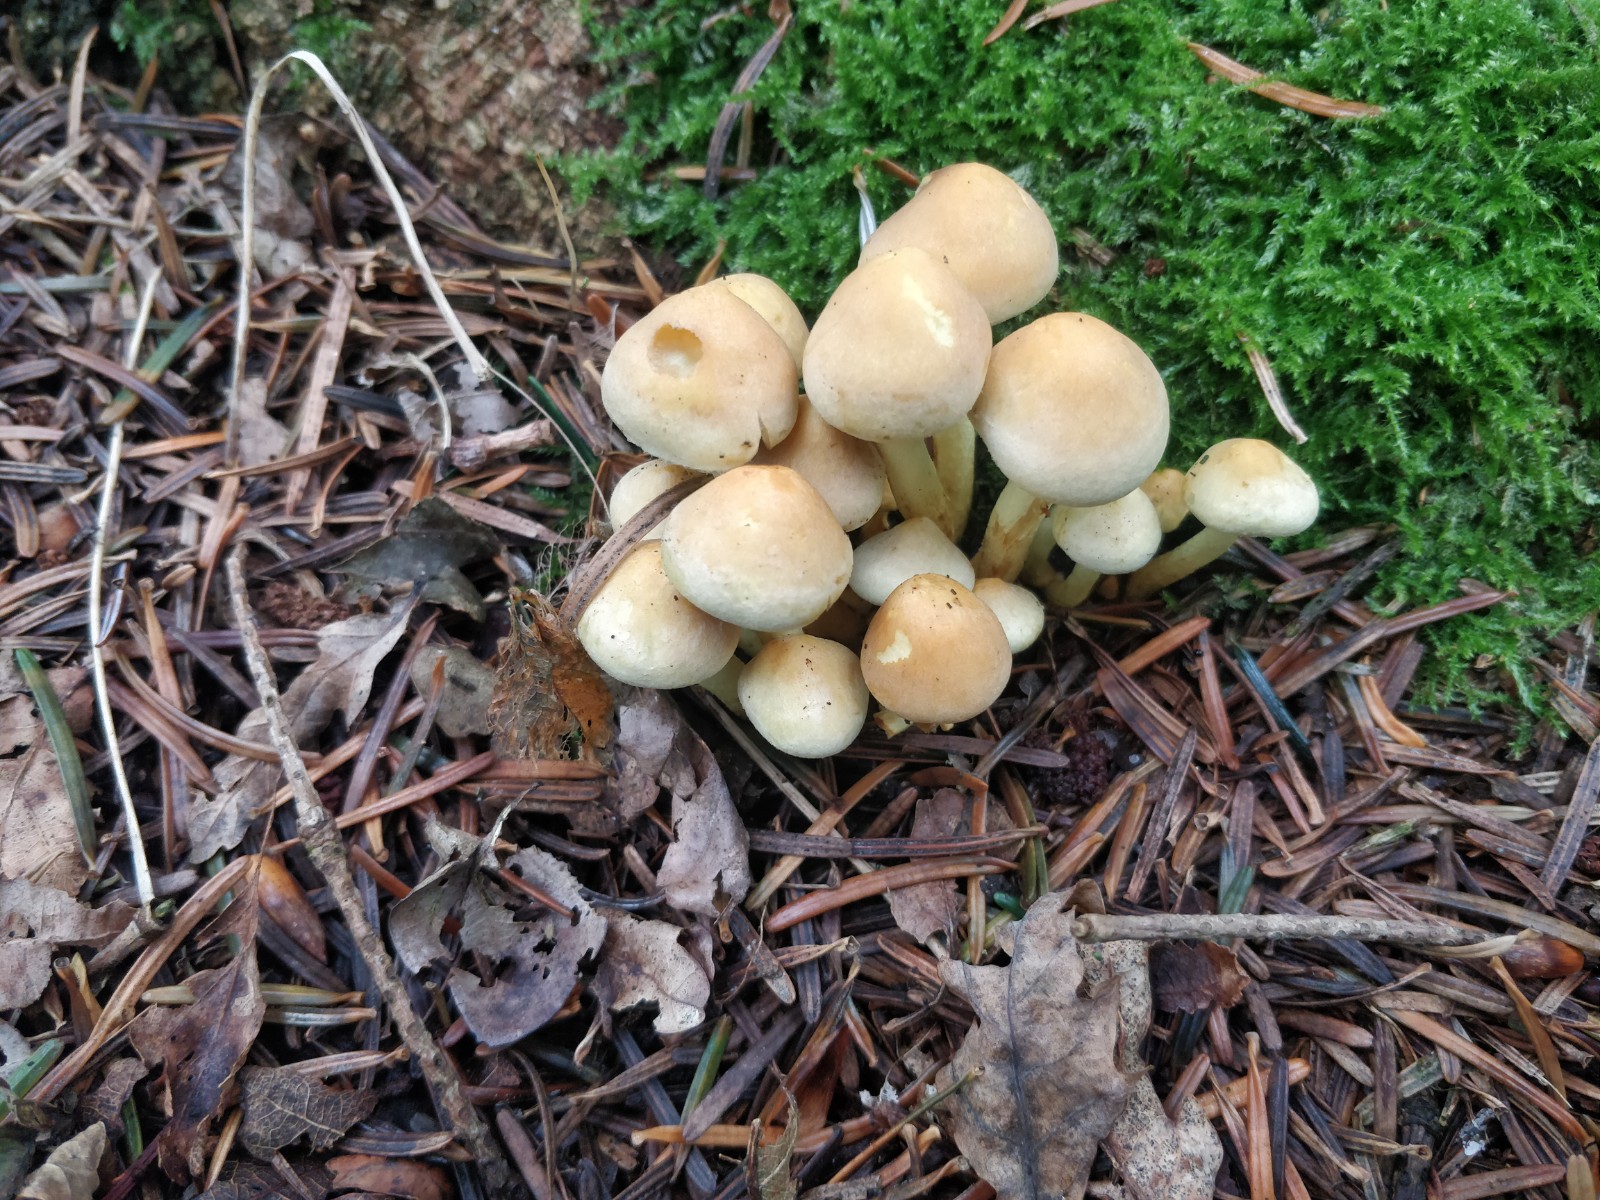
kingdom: Fungi
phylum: Basidiomycota
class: Agaricomycetes
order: Agaricales
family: Strophariaceae
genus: Hypholoma
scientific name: Hypholoma fasciculare
